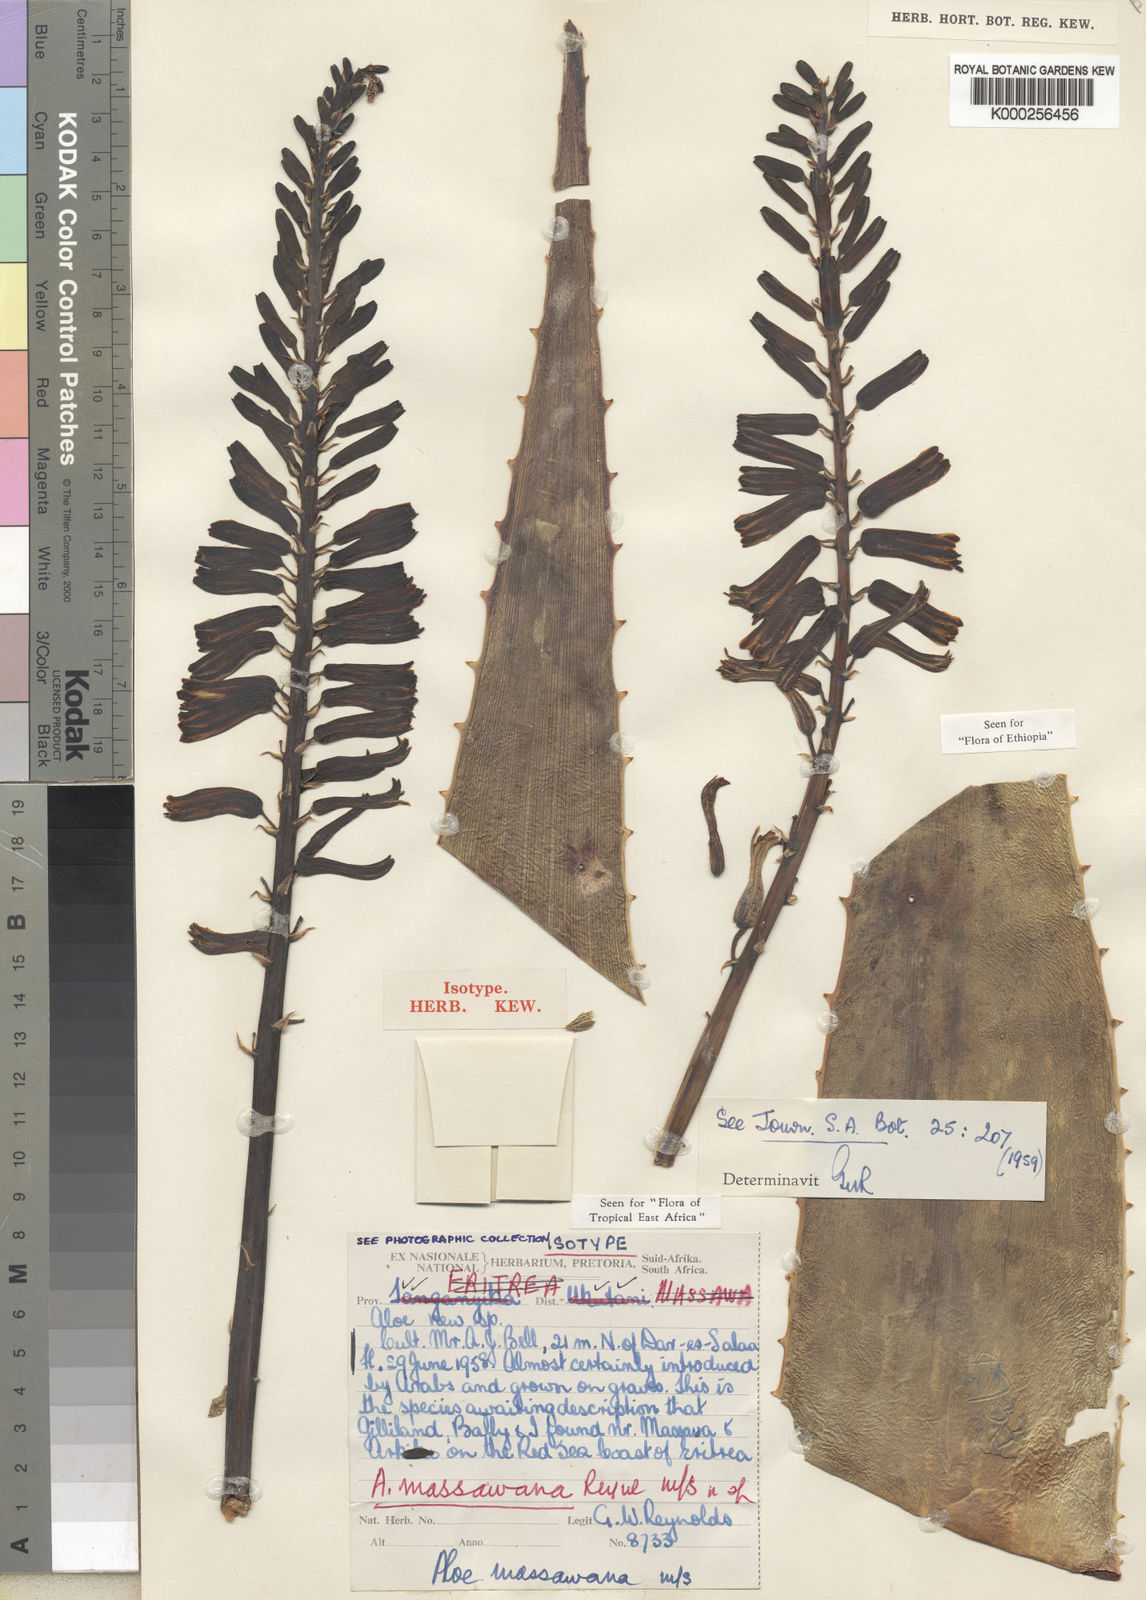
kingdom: Plantae
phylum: Tracheophyta
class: Liliopsida
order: Asparagales
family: Asphodelaceae
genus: Aloe
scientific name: Aloe massawana
